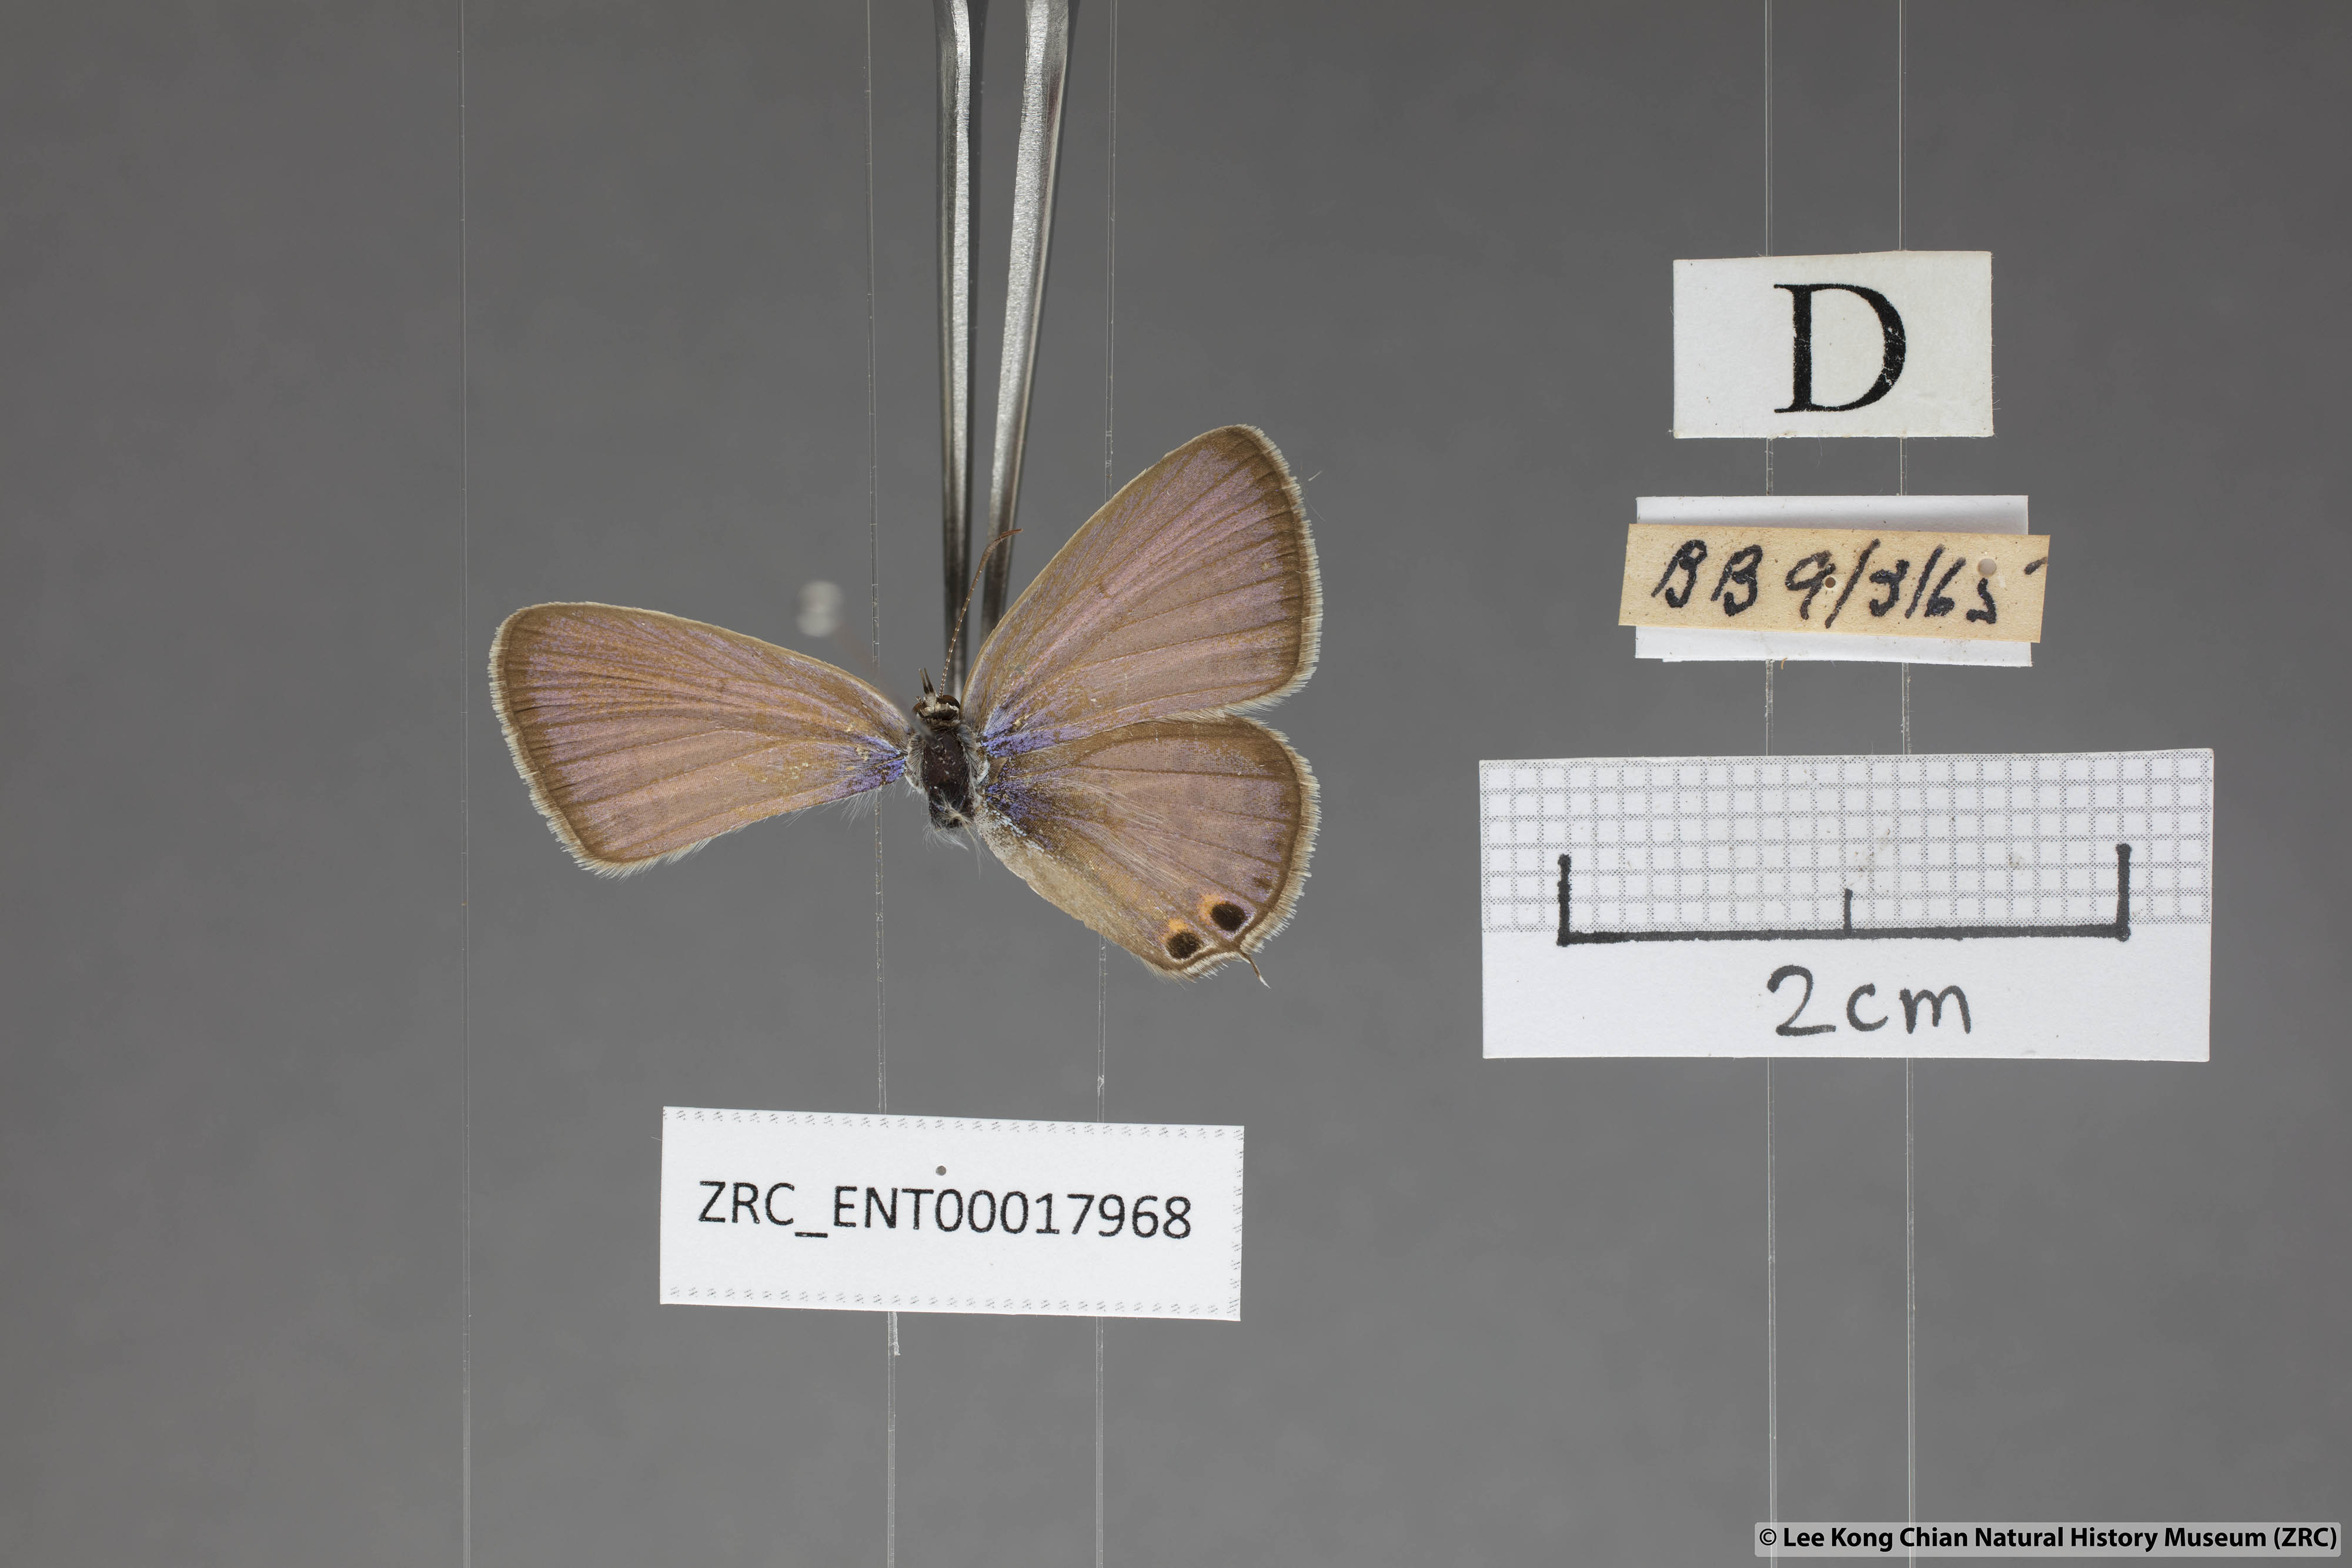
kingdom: Animalia
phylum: Arthropoda
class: Insecta
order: Lepidoptera
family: Lycaenidae
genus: Euchrysops
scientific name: Euchrysops cnejus
